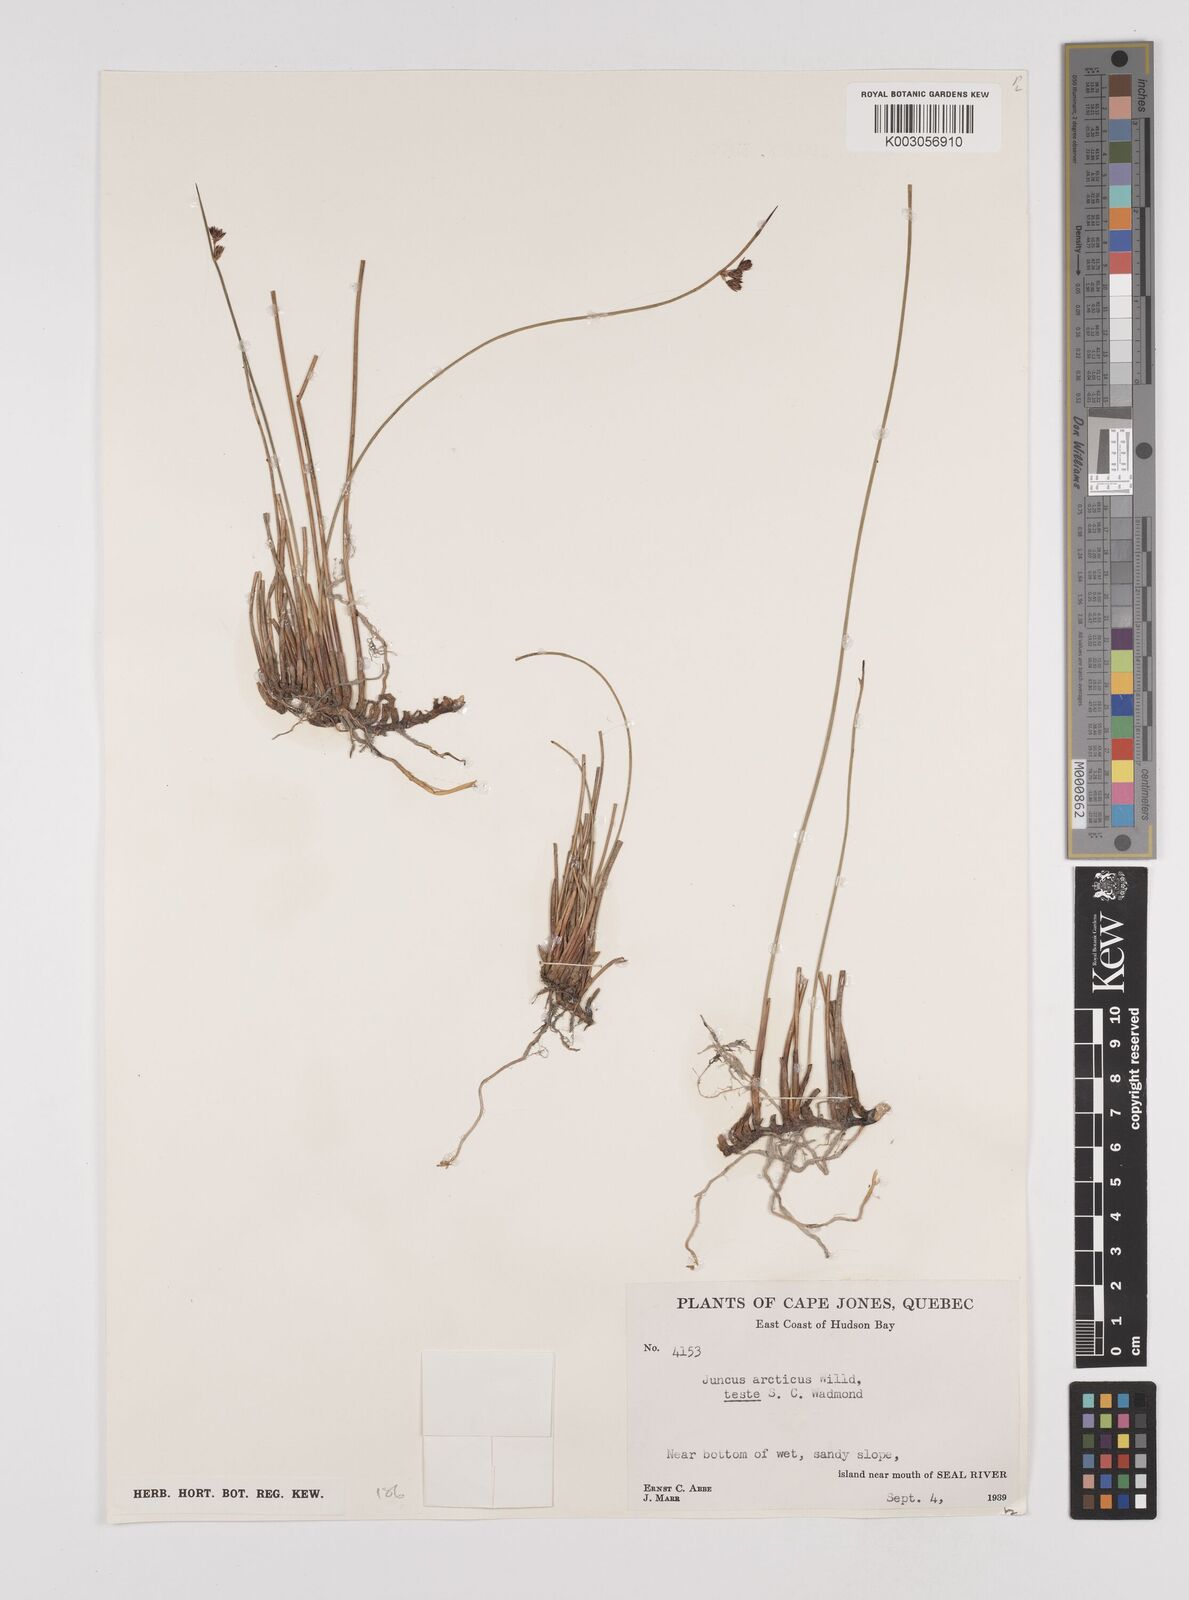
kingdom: Plantae
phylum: Tracheophyta
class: Liliopsida
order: Poales
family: Juncaceae
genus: Juncus
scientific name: Juncus arcticus
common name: Arctic rush
